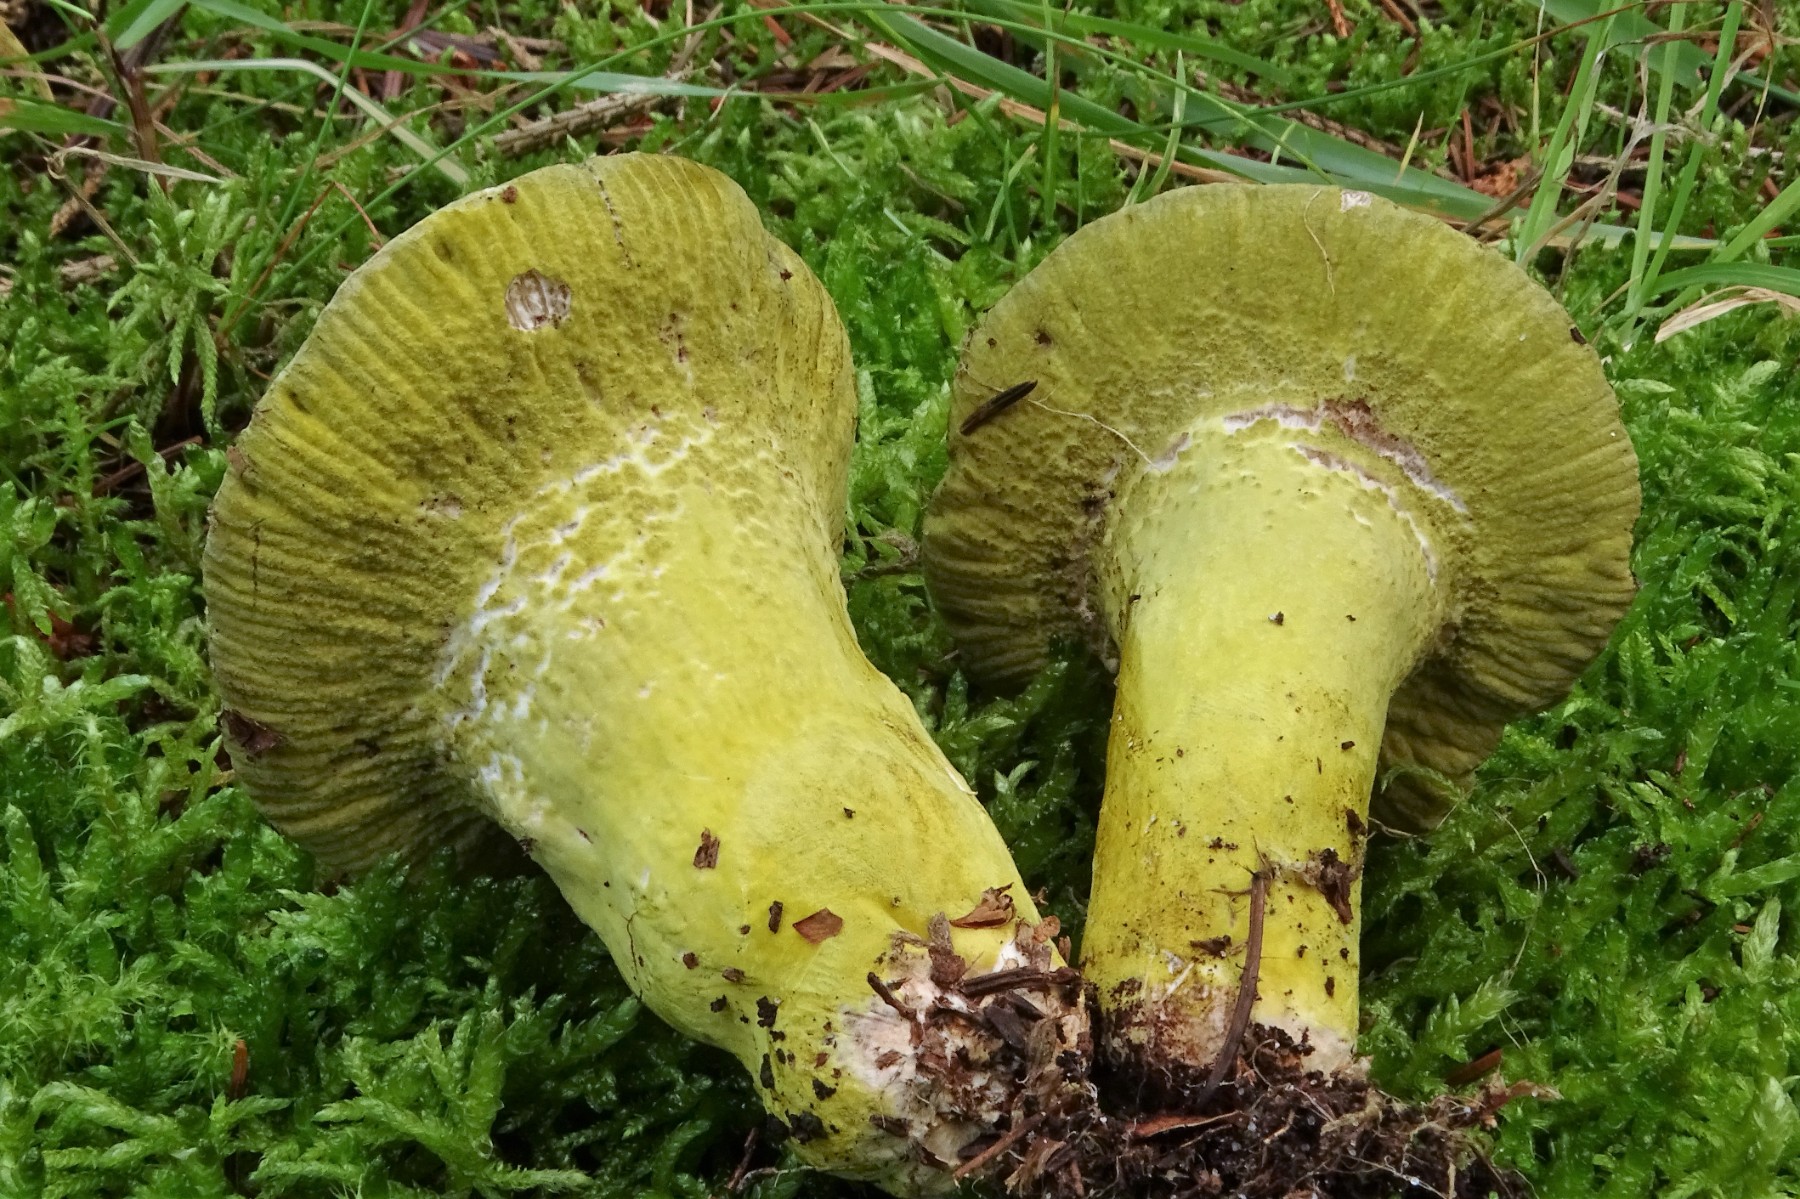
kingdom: Fungi
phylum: Ascomycota
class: Sordariomycetes
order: Hypocreales
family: Hypocreaceae
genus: Hypomyces
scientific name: Hypomyces luteovirens
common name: gulgrøn snylteskorpe
